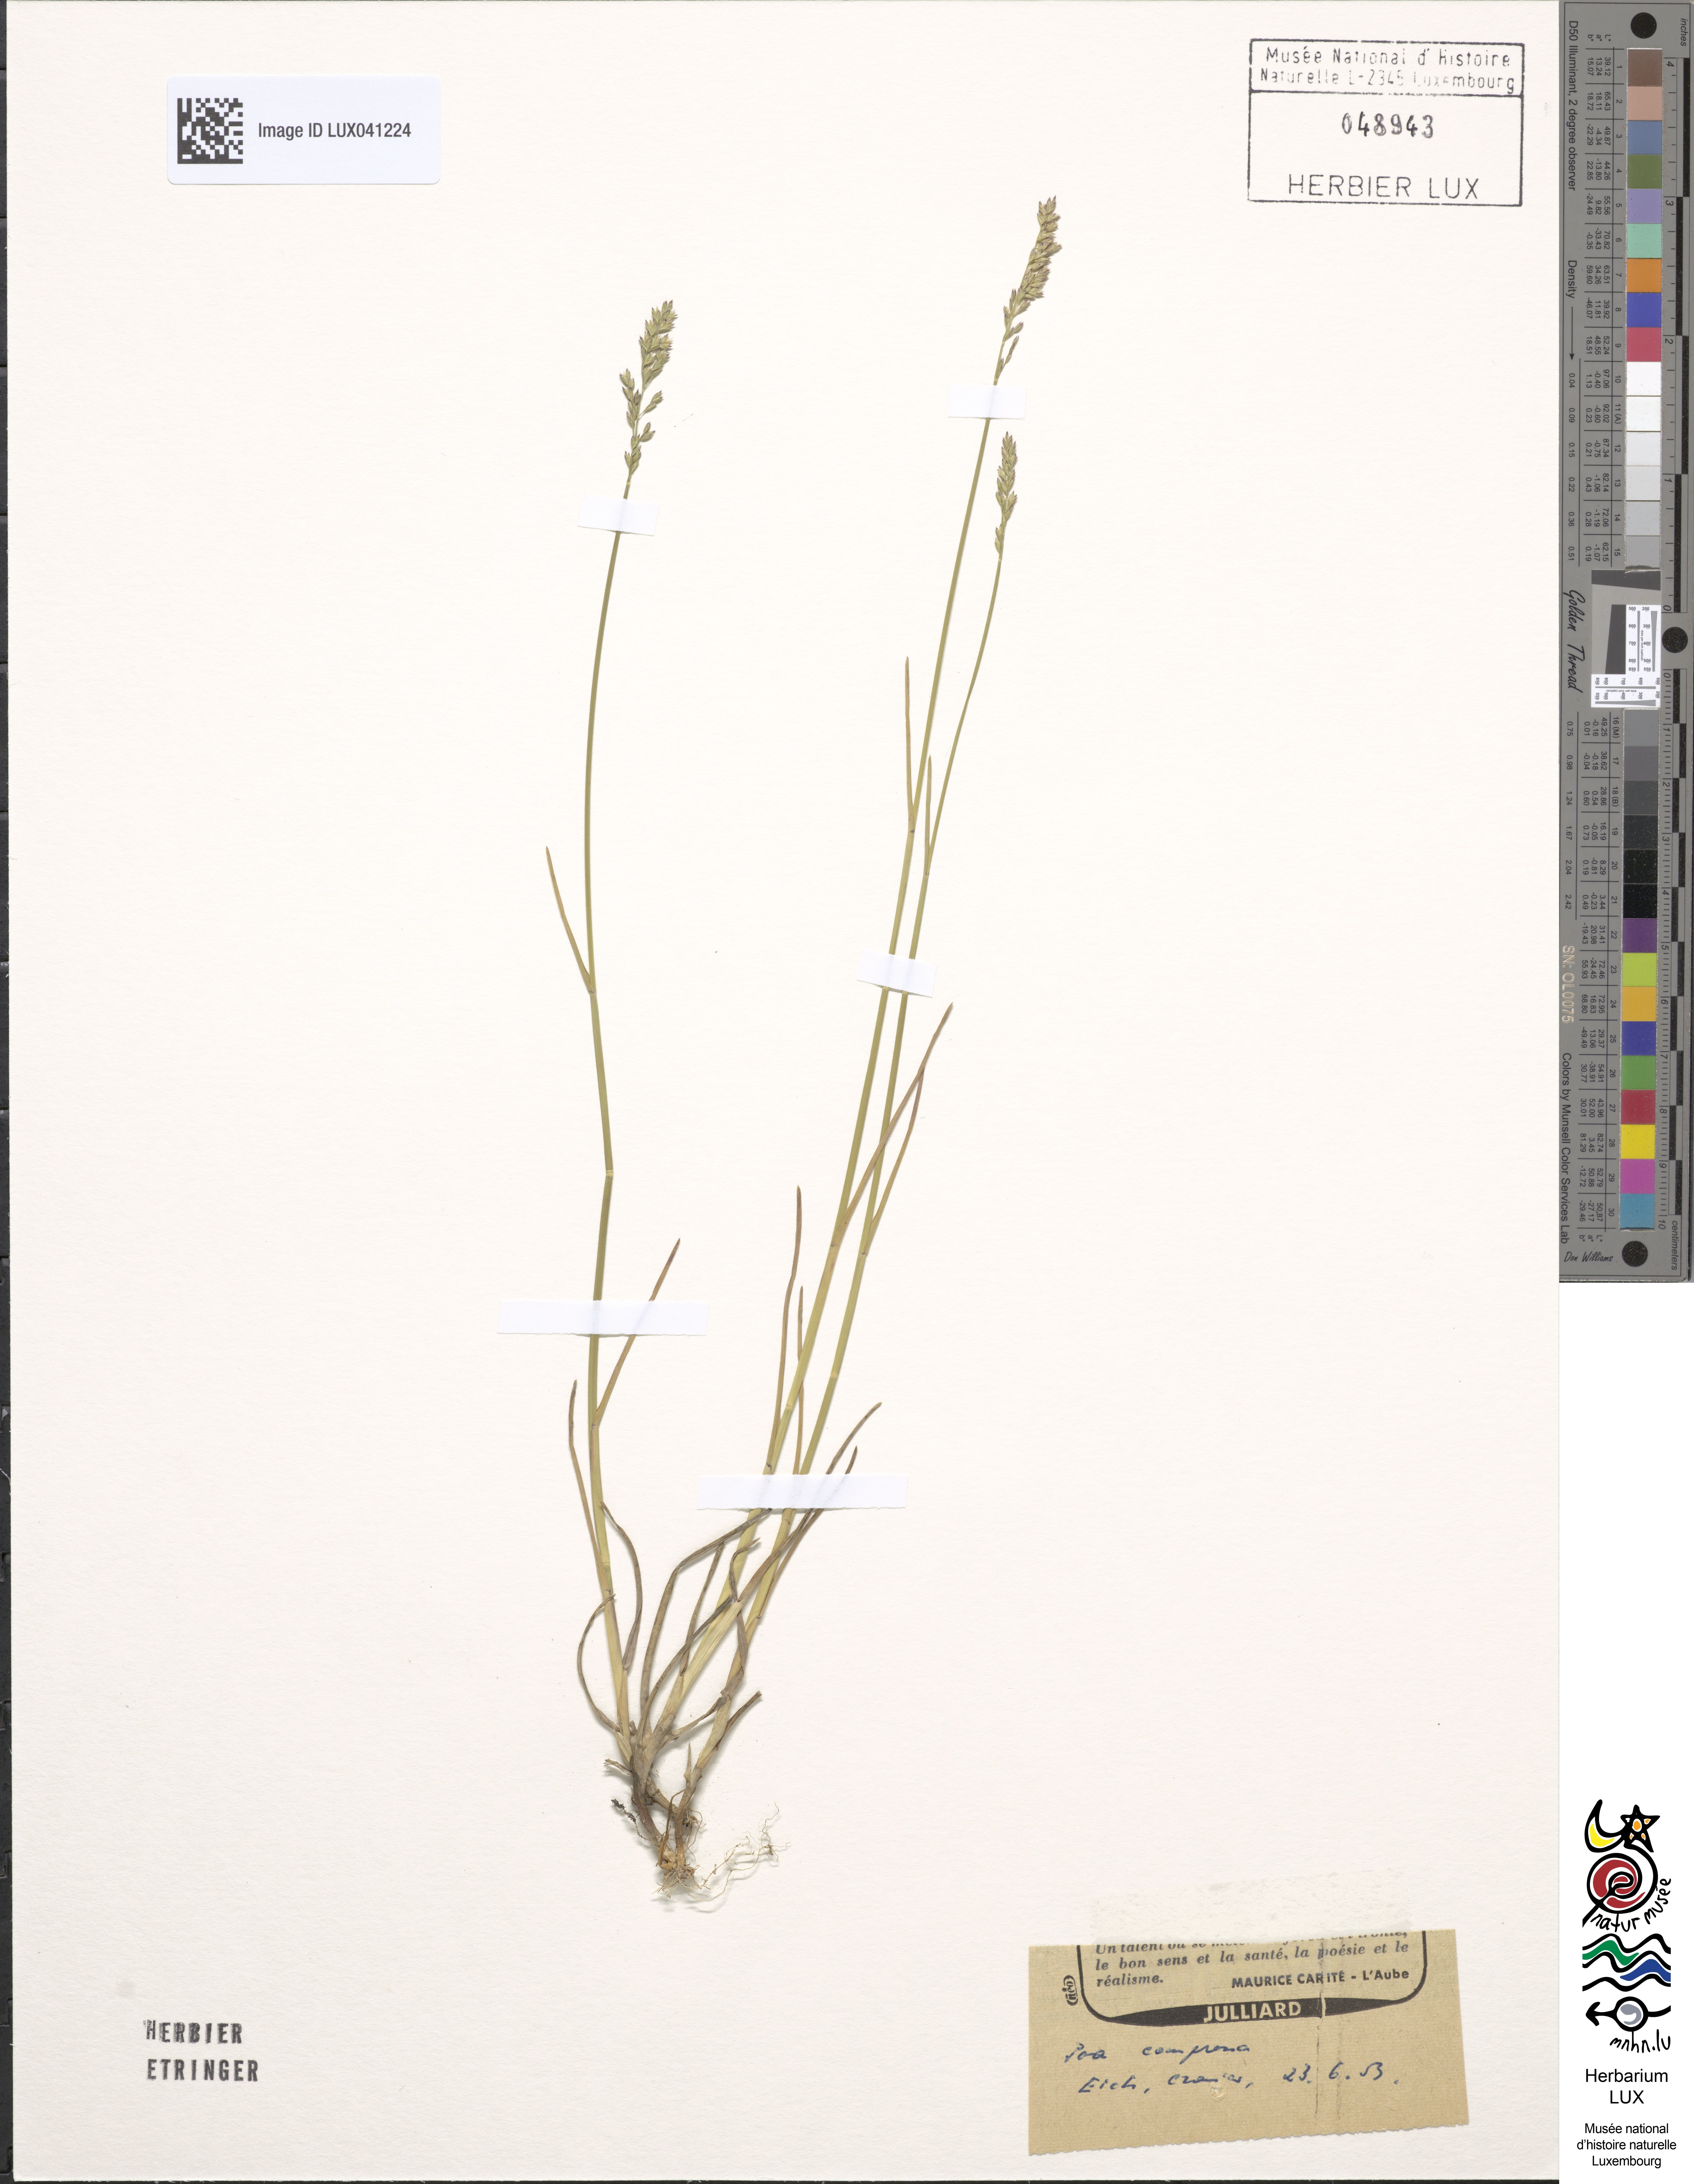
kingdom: Plantae
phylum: Tracheophyta
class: Liliopsida
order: Poales
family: Poaceae
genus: Poa
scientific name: Poa compressa
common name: Canada bluegrass
